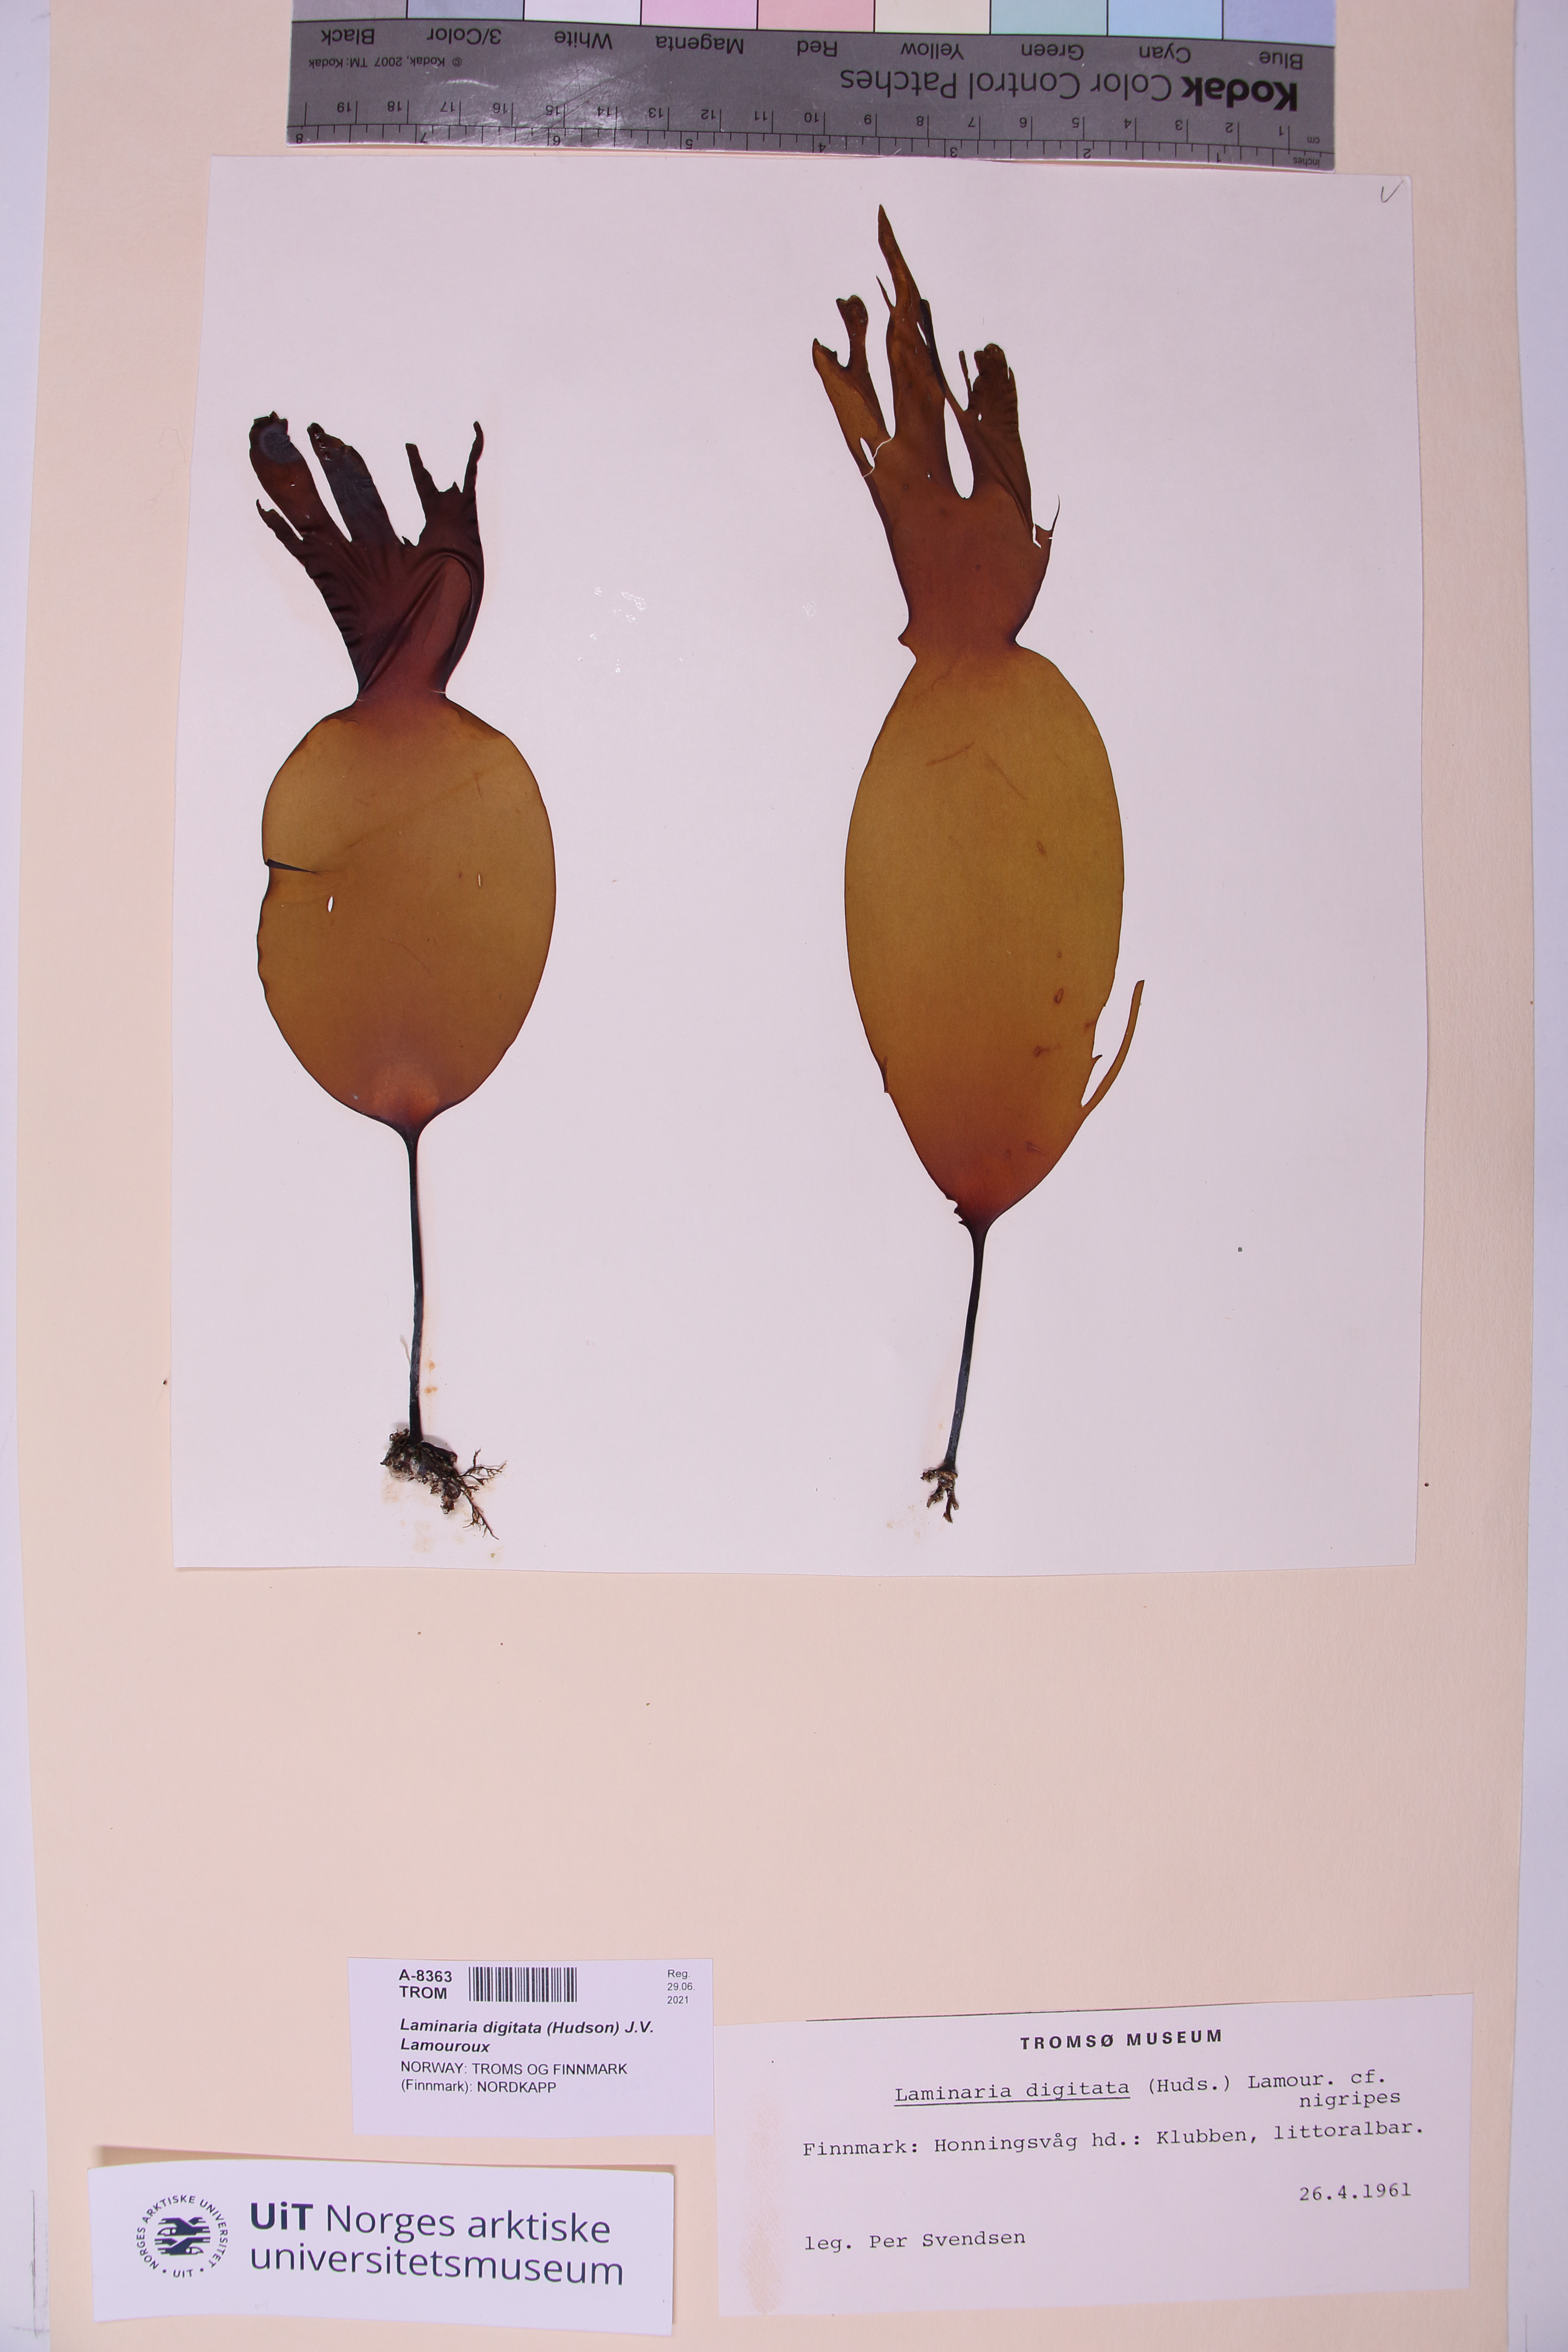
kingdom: Chromista
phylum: Ochrophyta
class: Phaeophyceae
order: Laminariales
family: Laminariaceae
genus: Laminaria
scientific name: Laminaria hyperborea
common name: Cuvie
